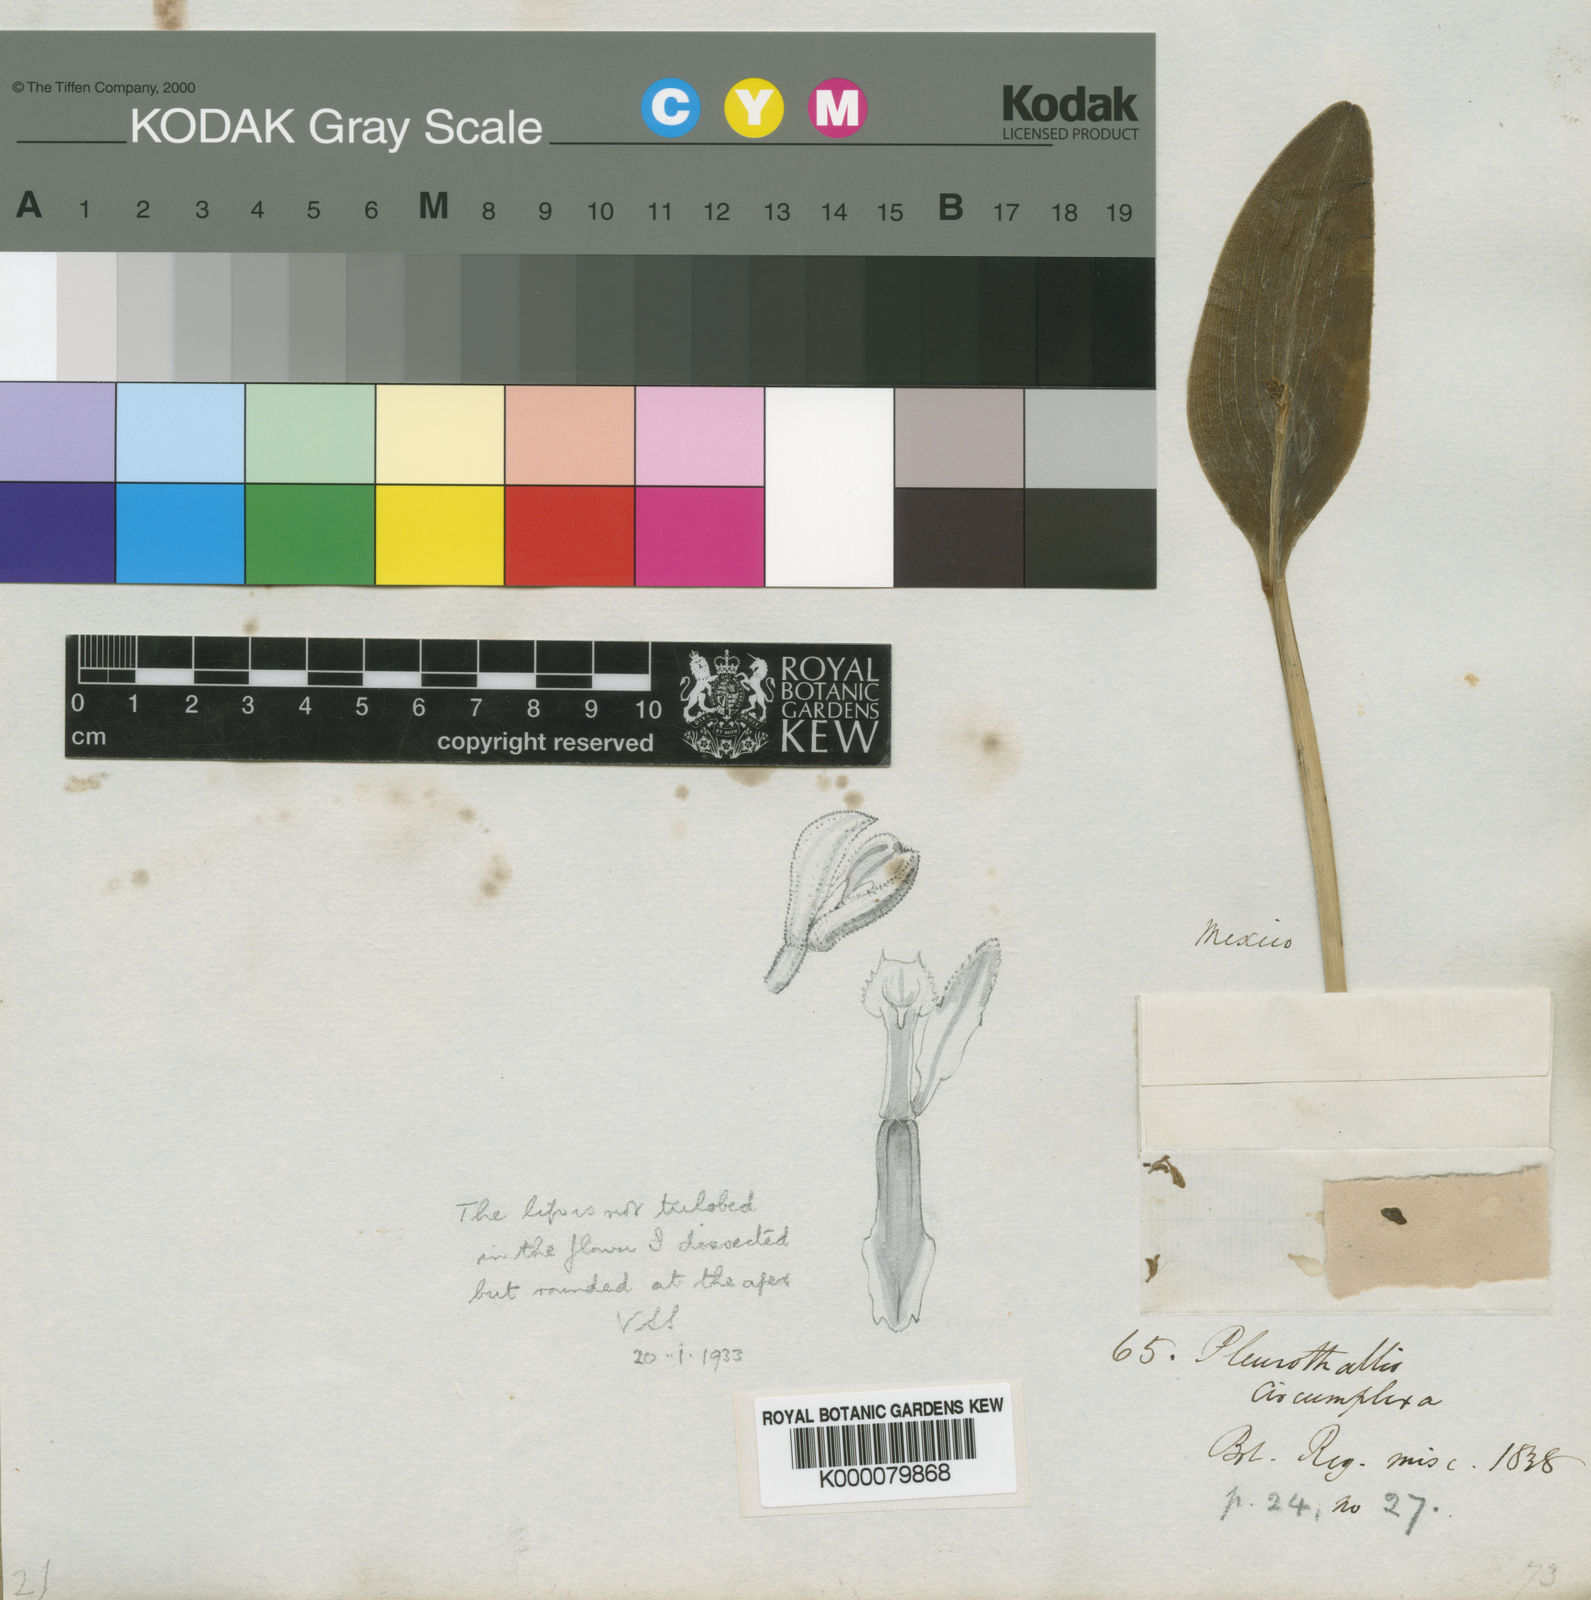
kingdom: Plantae
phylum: Tracheophyta
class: Liliopsida
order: Asparagales
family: Orchidaceae
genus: Acianthera
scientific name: Acianthera circumplexa
